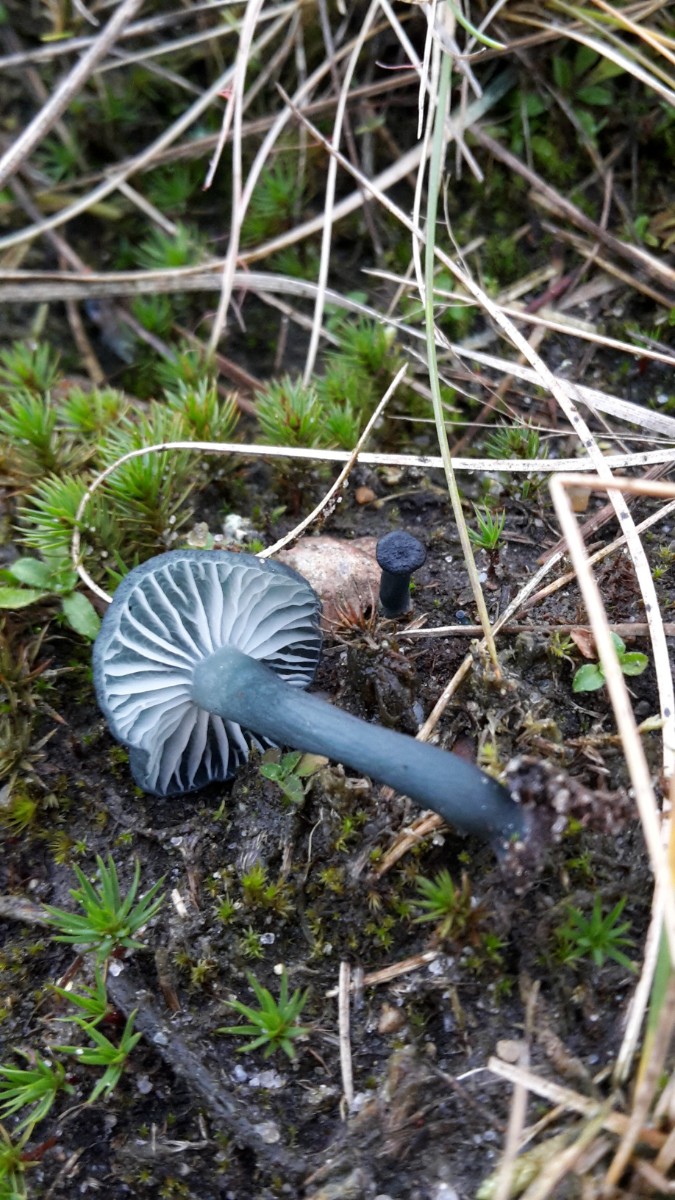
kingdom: Fungi
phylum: Basidiomycota
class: Agaricomycetes
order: Agaricales
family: Hygrophoraceae
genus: Arrhenia
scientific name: Arrhenia chlorocyanea
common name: blågrøn fontænehat
